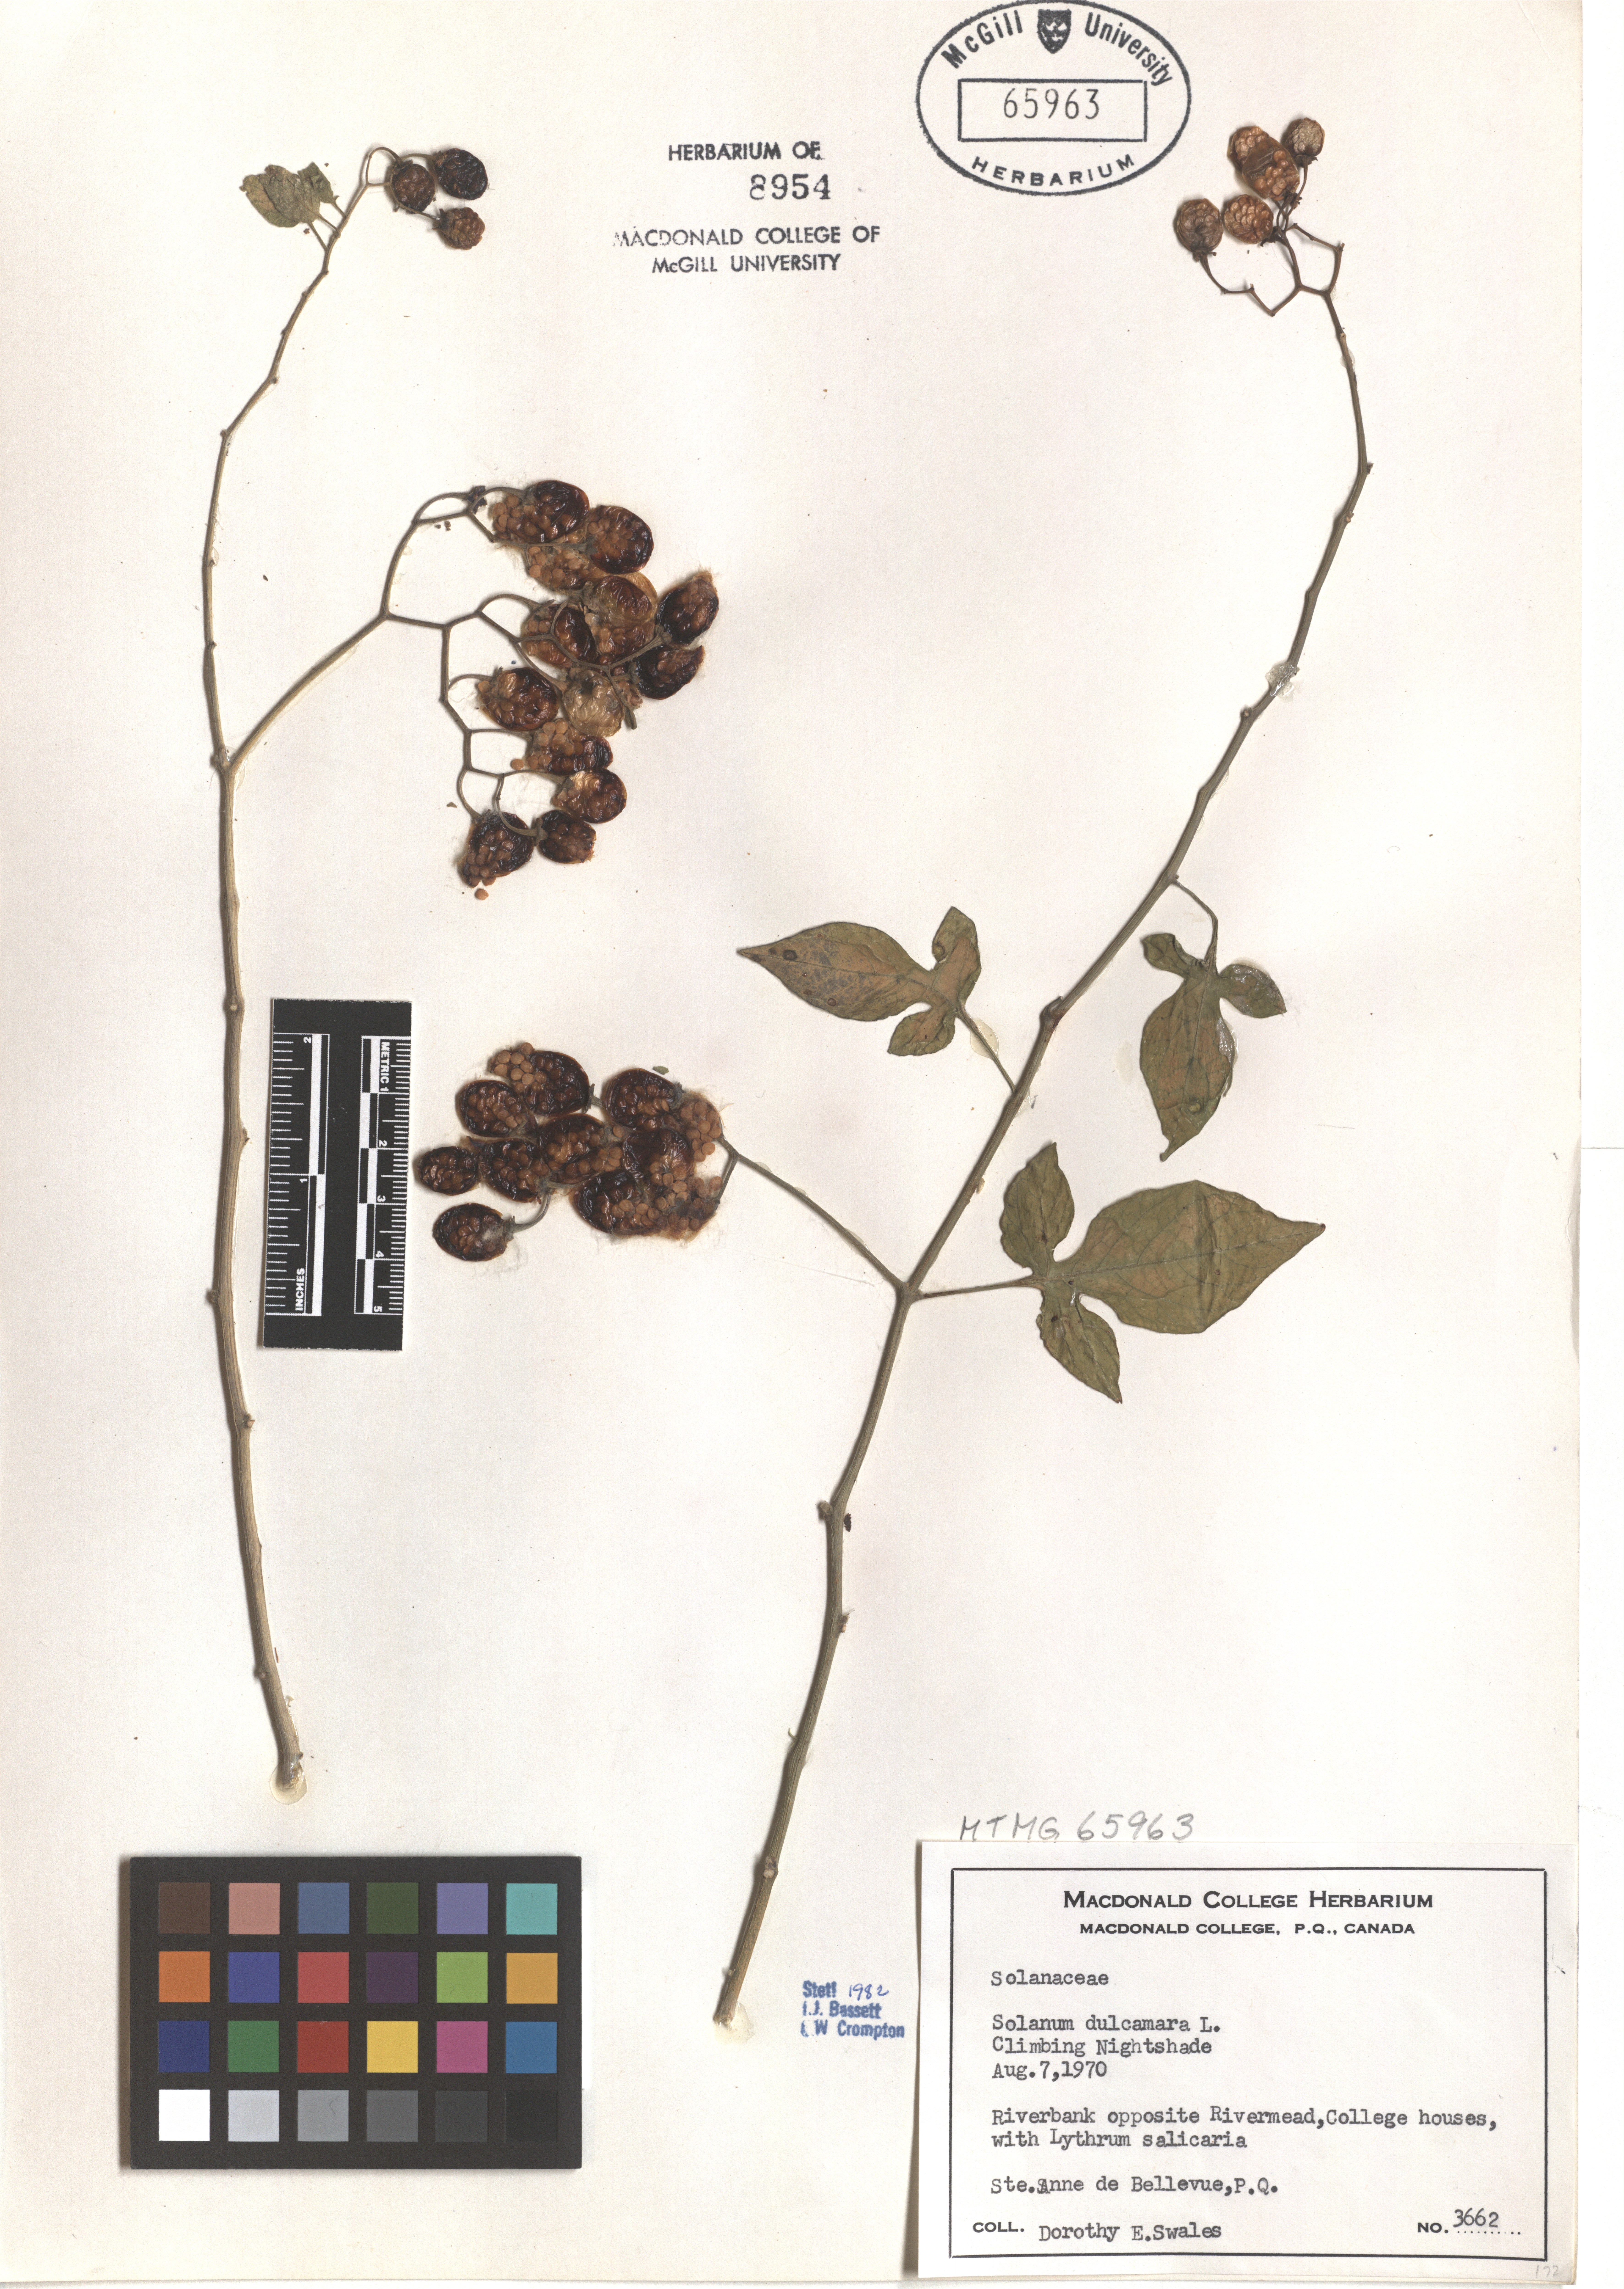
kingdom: Plantae
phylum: Tracheophyta
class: Magnoliopsida
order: Solanales
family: Solanaceae
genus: Solanum
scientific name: Solanum dulcamara
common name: Climbing nightshade
